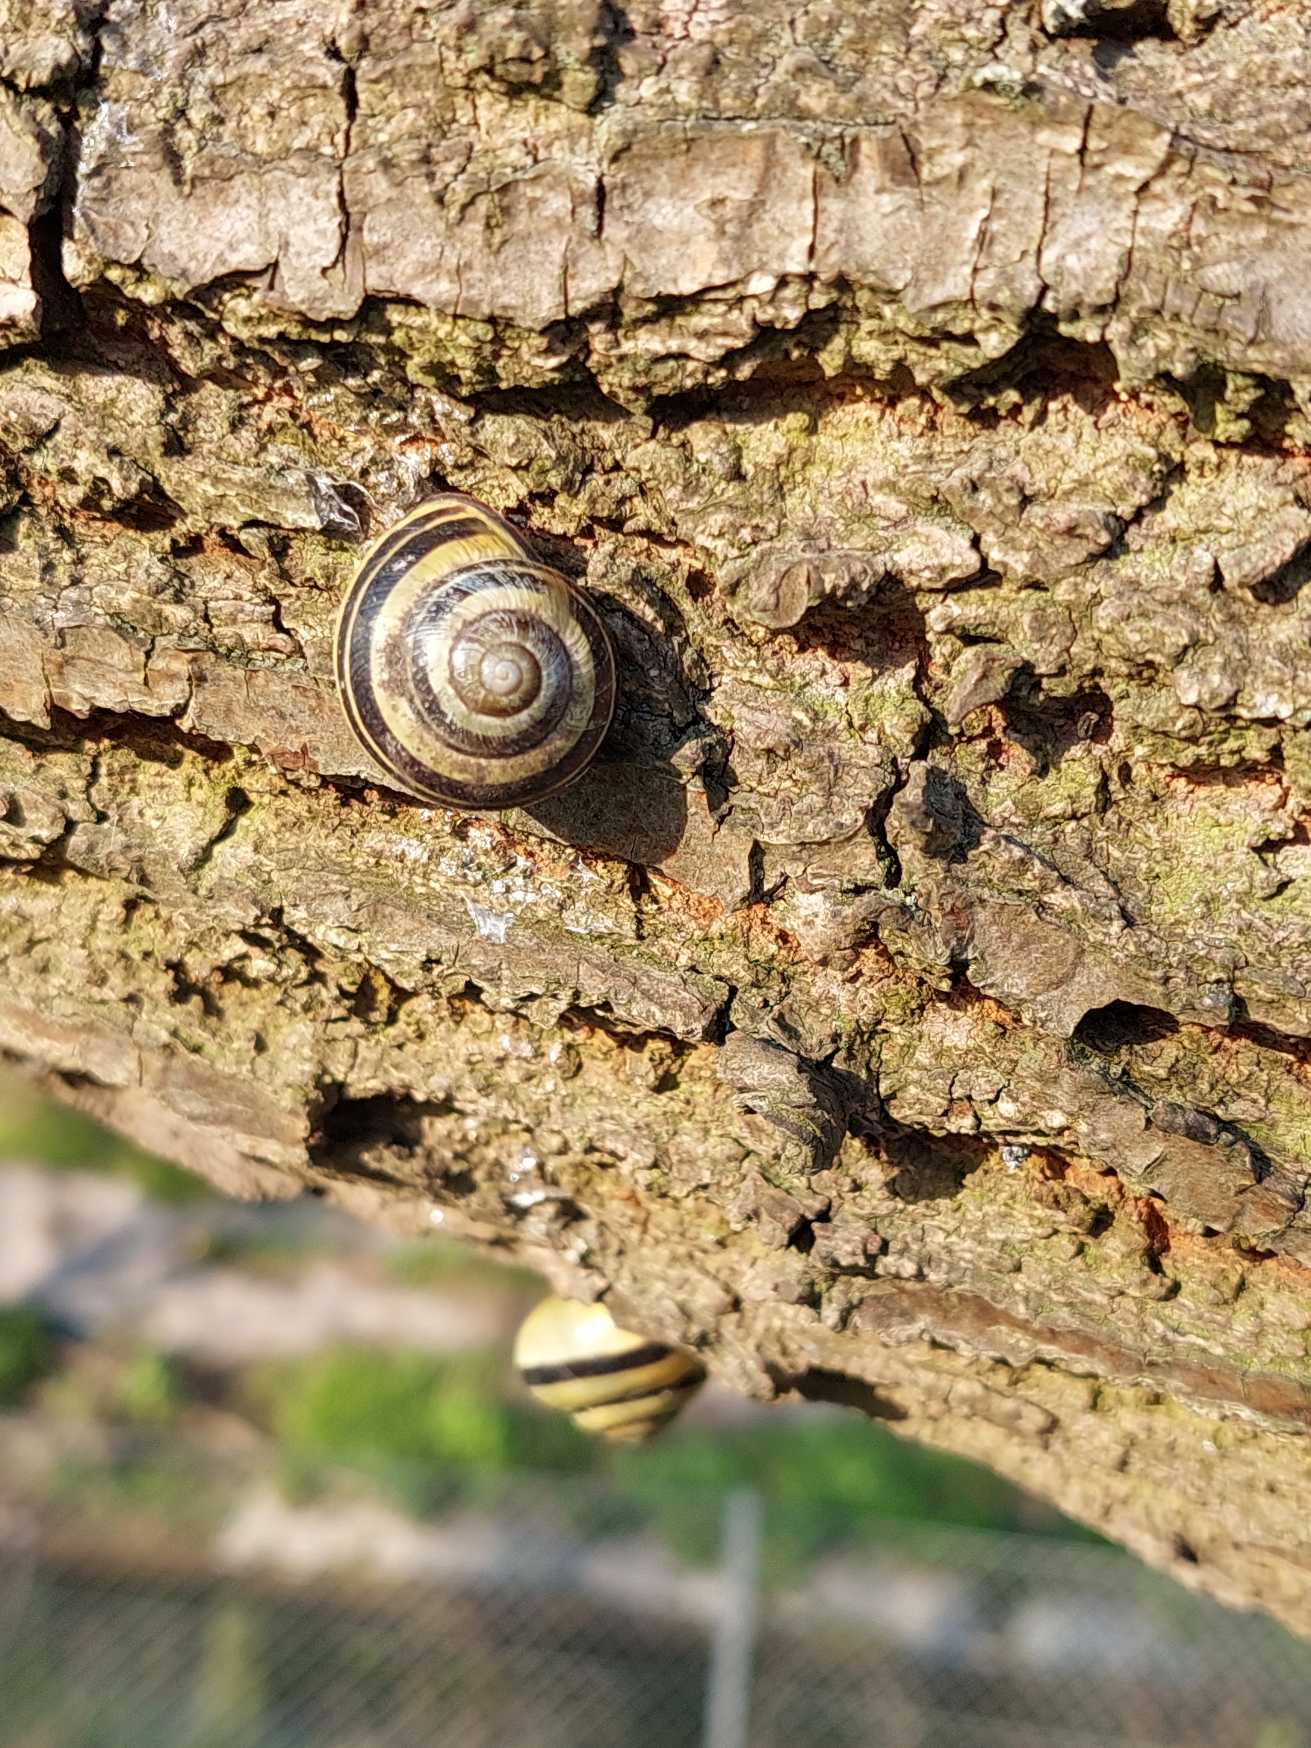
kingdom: Animalia
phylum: Mollusca
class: Gastropoda
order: Stylommatophora
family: Helicidae
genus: Cepaea
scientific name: Cepaea nemoralis
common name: Lundsnegl
